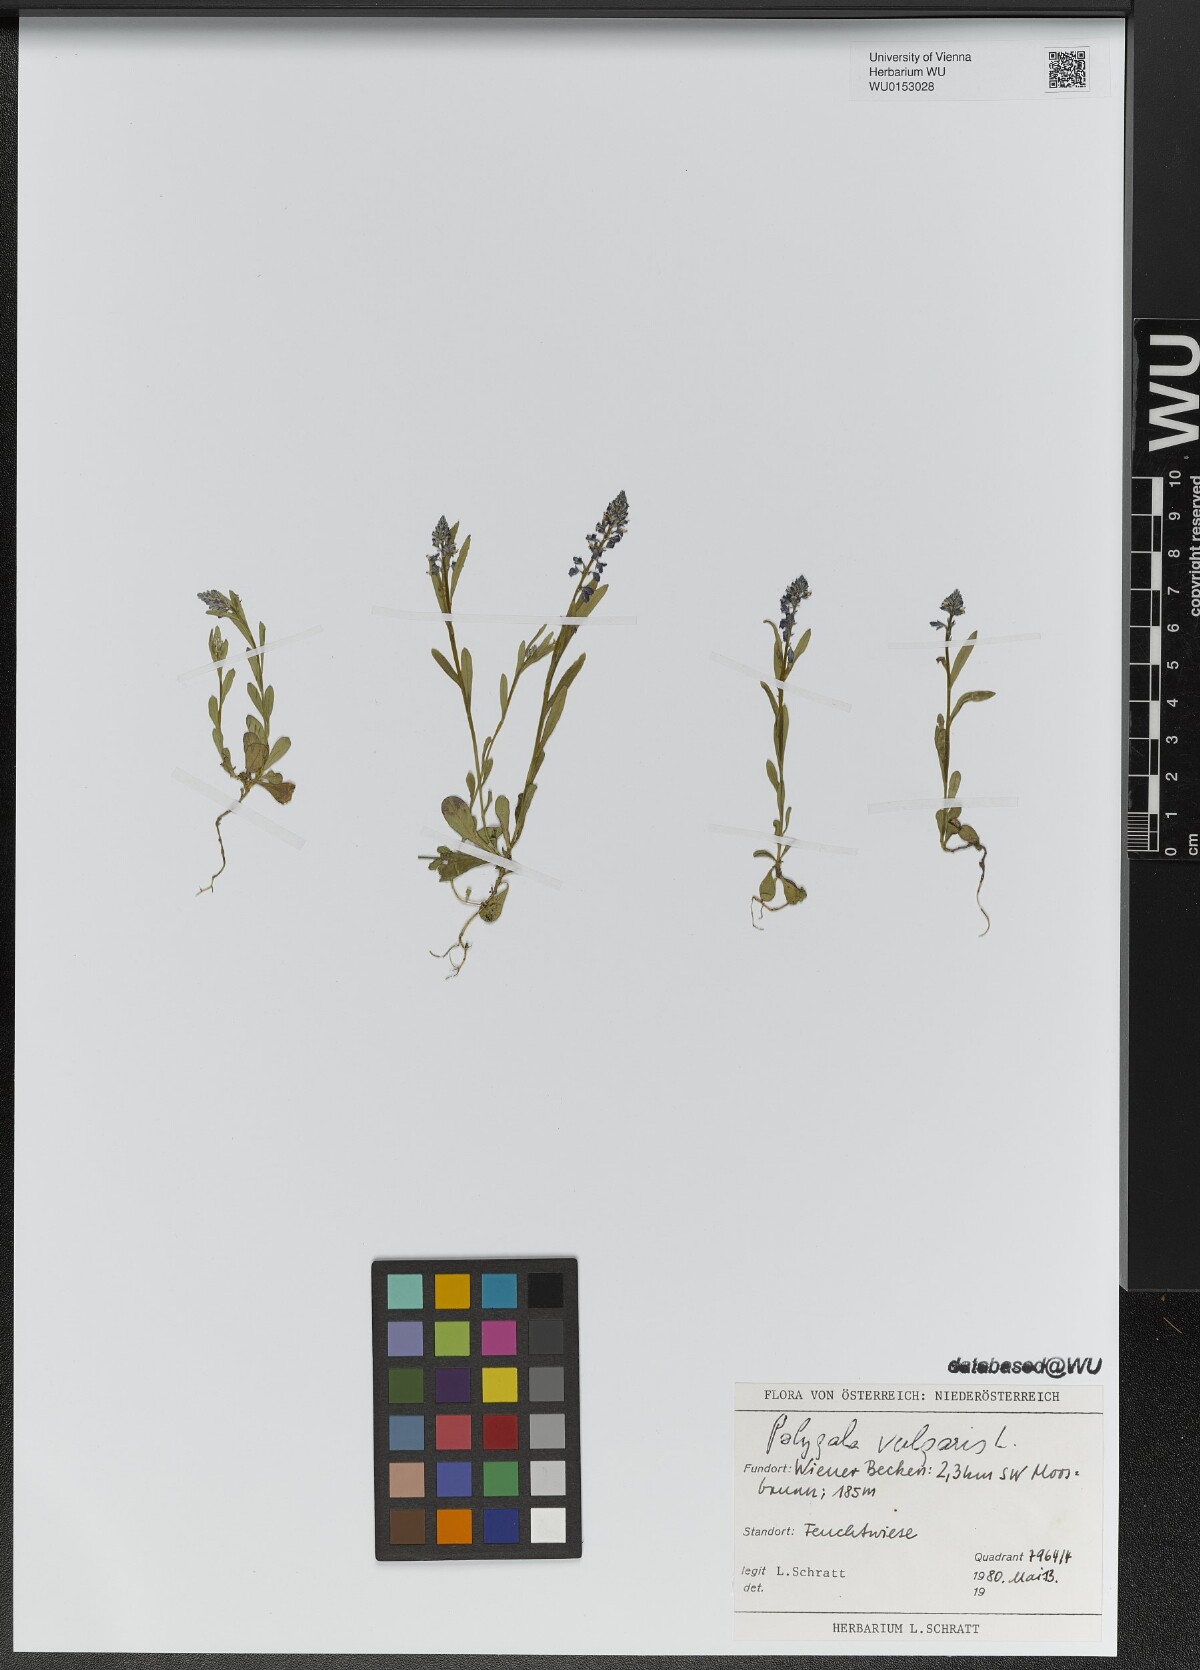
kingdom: Plantae
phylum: Tracheophyta
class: Magnoliopsida
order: Fabales
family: Polygalaceae
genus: Polygala
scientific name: Polygala vulgaris
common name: Common milkwort
